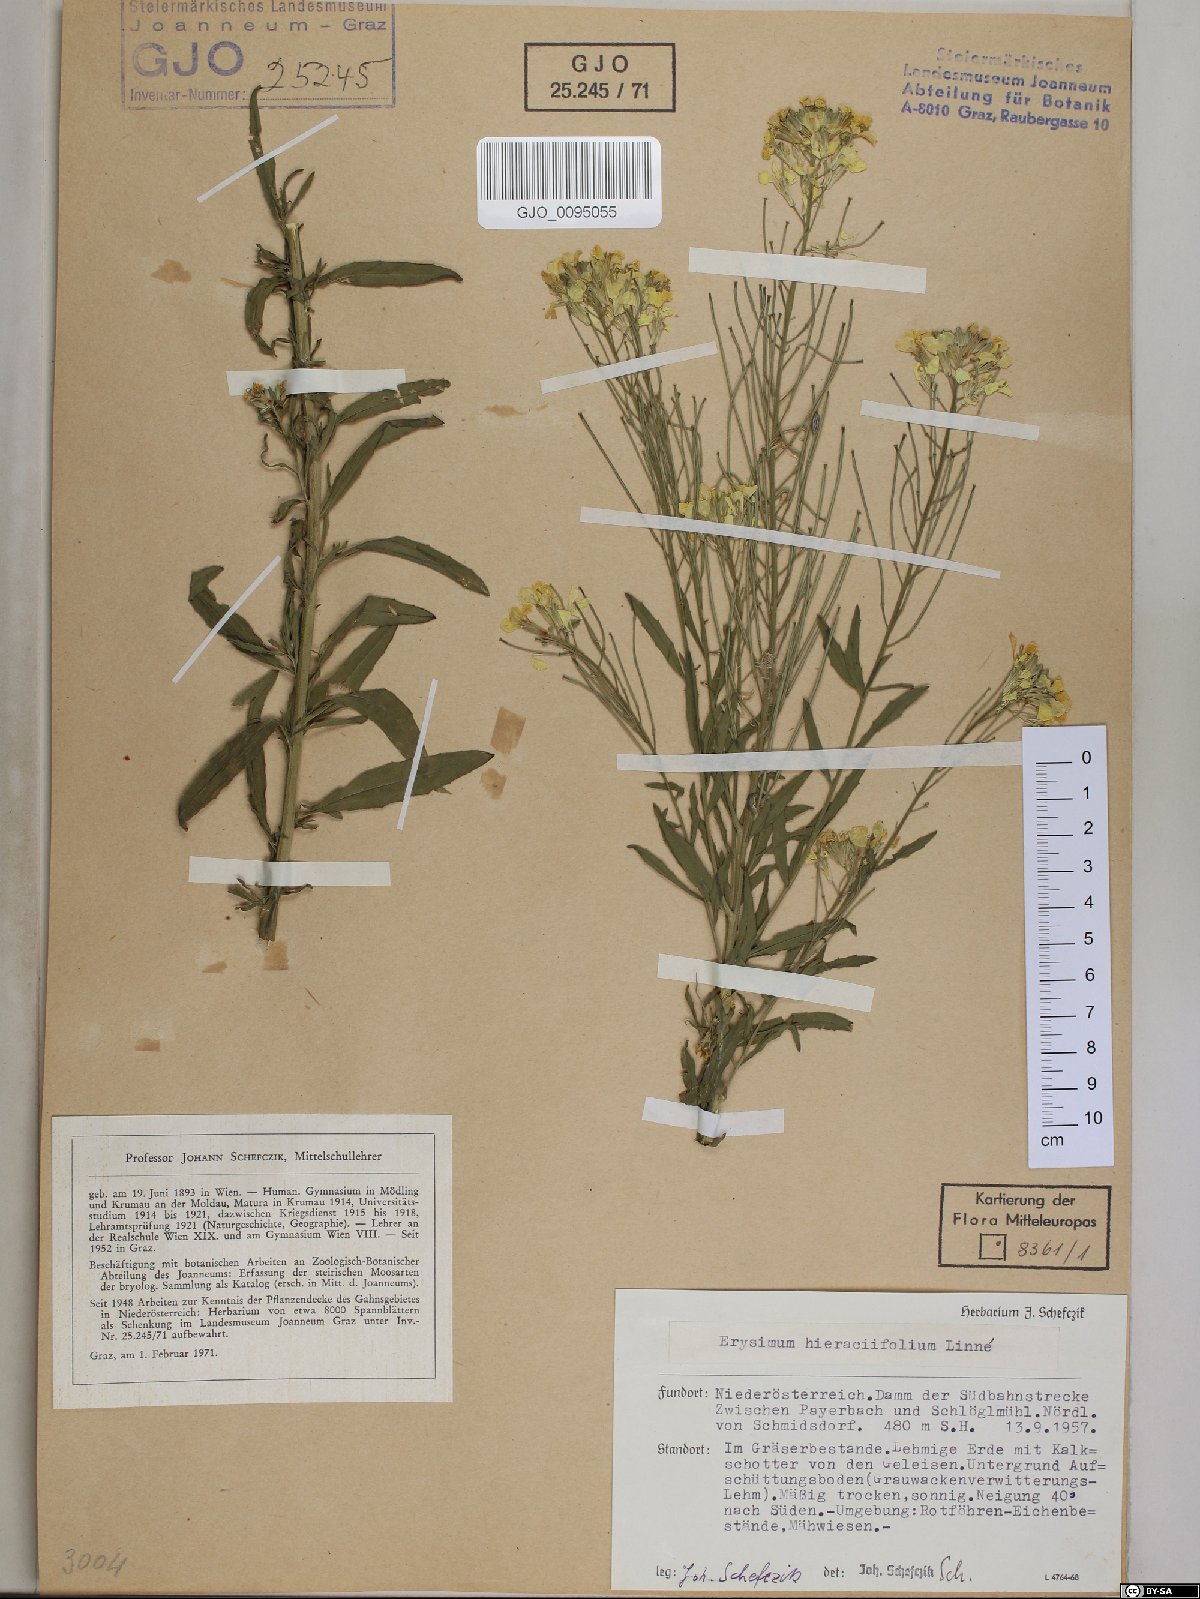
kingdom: Plantae
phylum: Tracheophyta
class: Magnoliopsida
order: Brassicales
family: Brassicaceae
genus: Erysimum
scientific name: Erysimum hieraciifolium
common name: European wallflower
